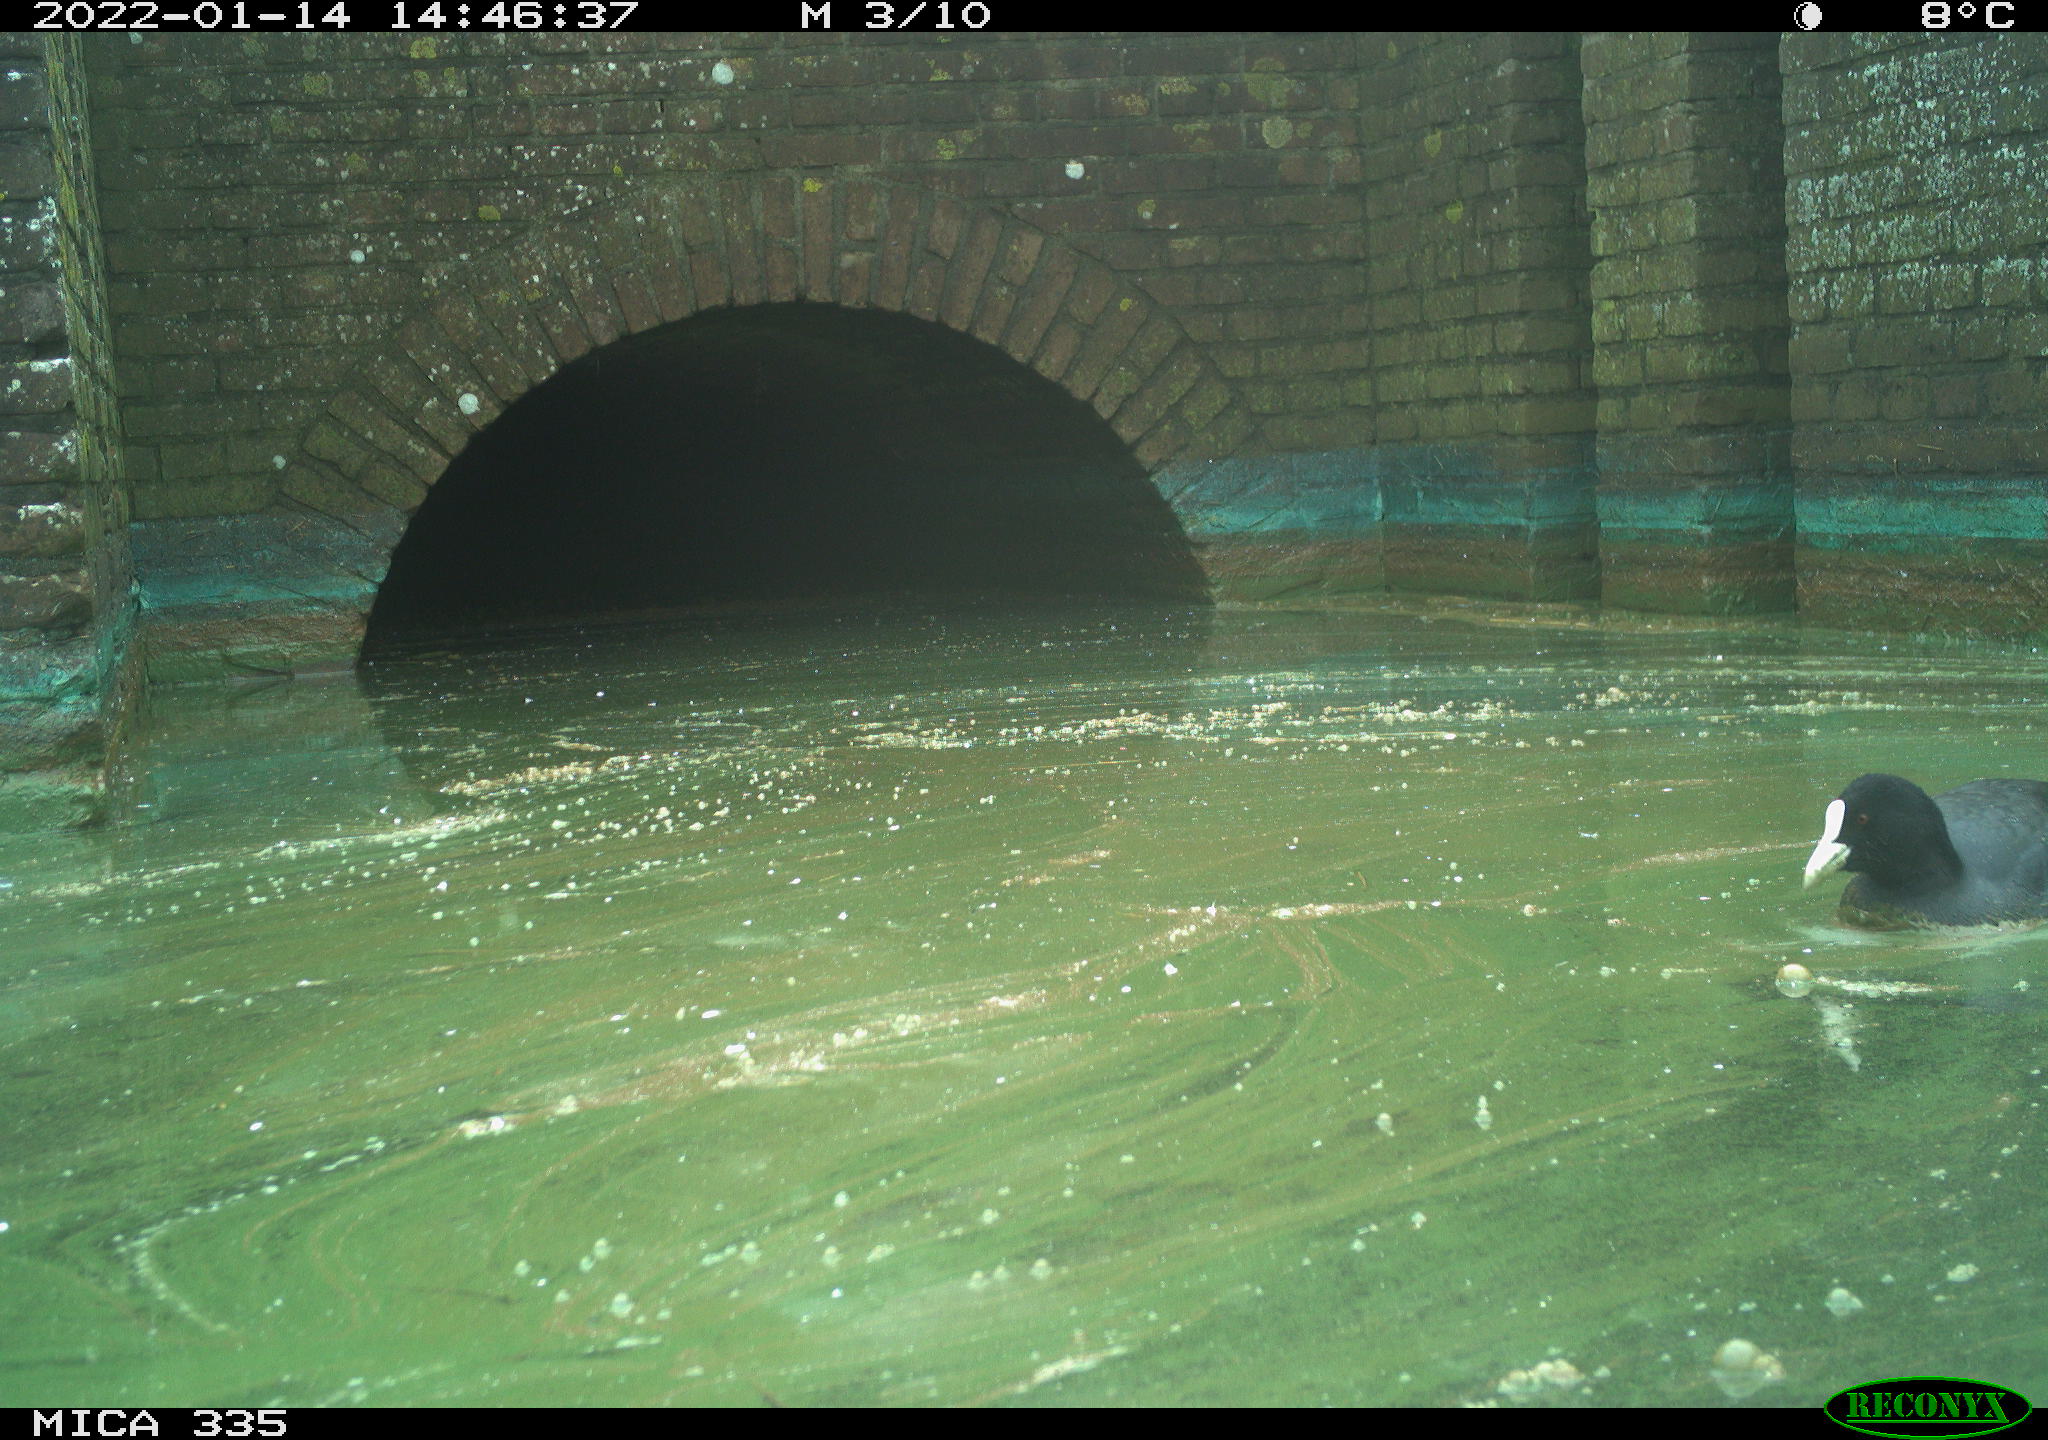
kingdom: Animalia
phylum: Chordata
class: Aves
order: Gruiformes
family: Rallidae
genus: Fulica
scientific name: Fulica atra
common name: Eurasian coot
